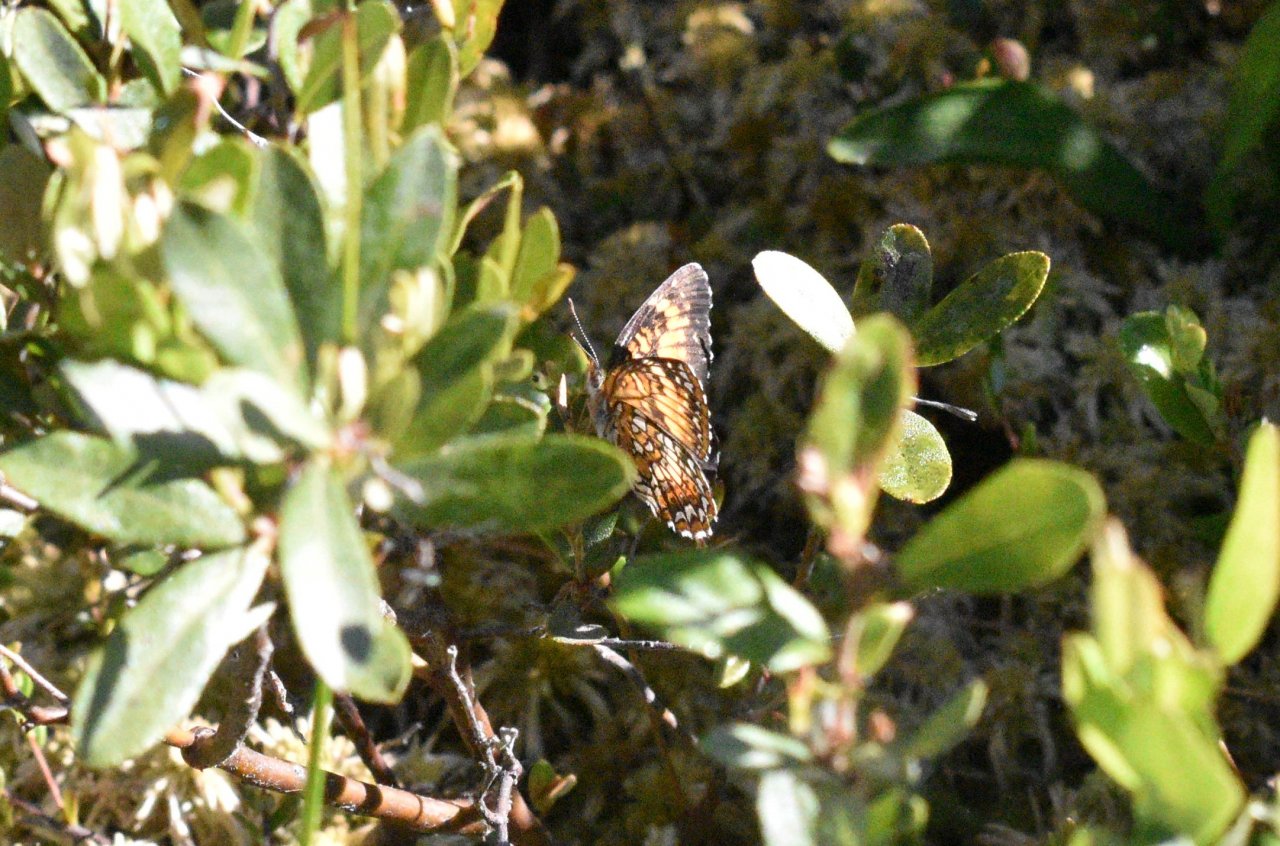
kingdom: Animalia
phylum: Arthropoda
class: Insecta
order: Lepidoptera
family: Nymphalidae
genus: Chlosyne
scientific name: Chlosyne harrisii
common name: Harris's Checkerspot
